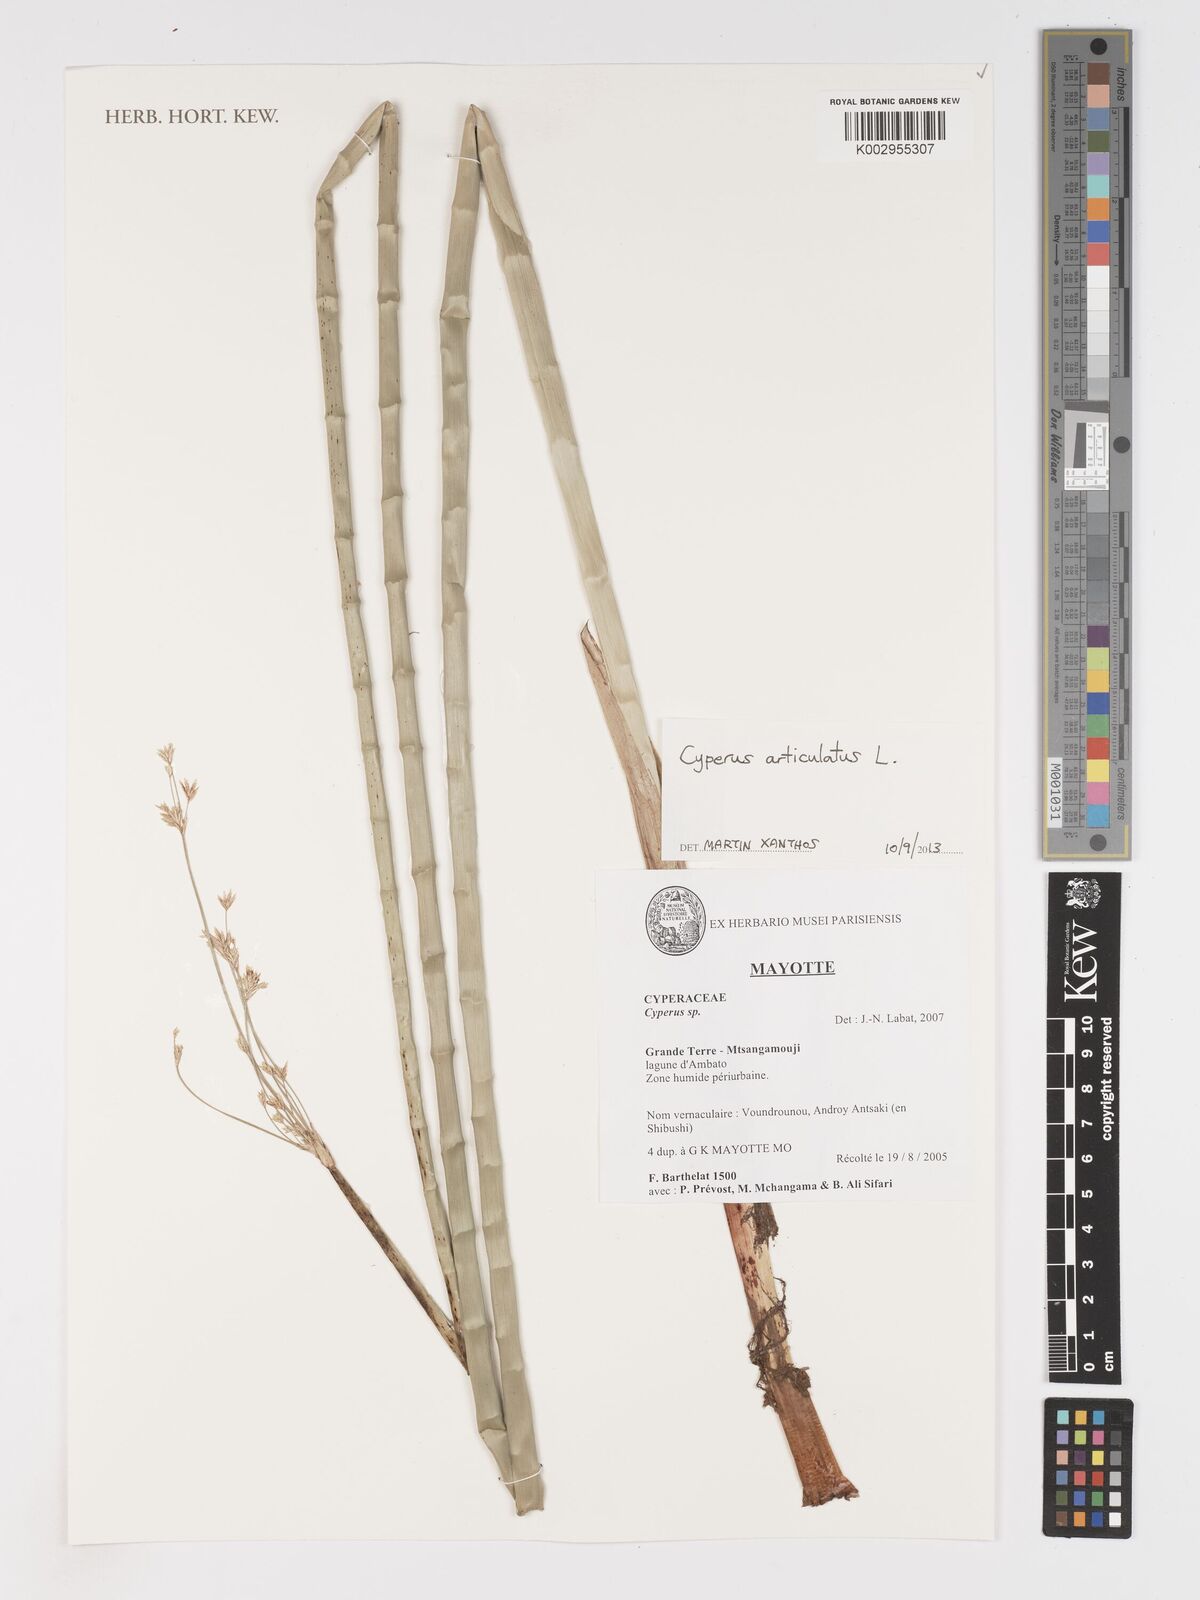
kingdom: Plantae
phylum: Tracheophyta
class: Liliopsida
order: Poales
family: Cyperaceae
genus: Cyperus
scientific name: Cyperus articulatus
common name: Jointed flatsedge
